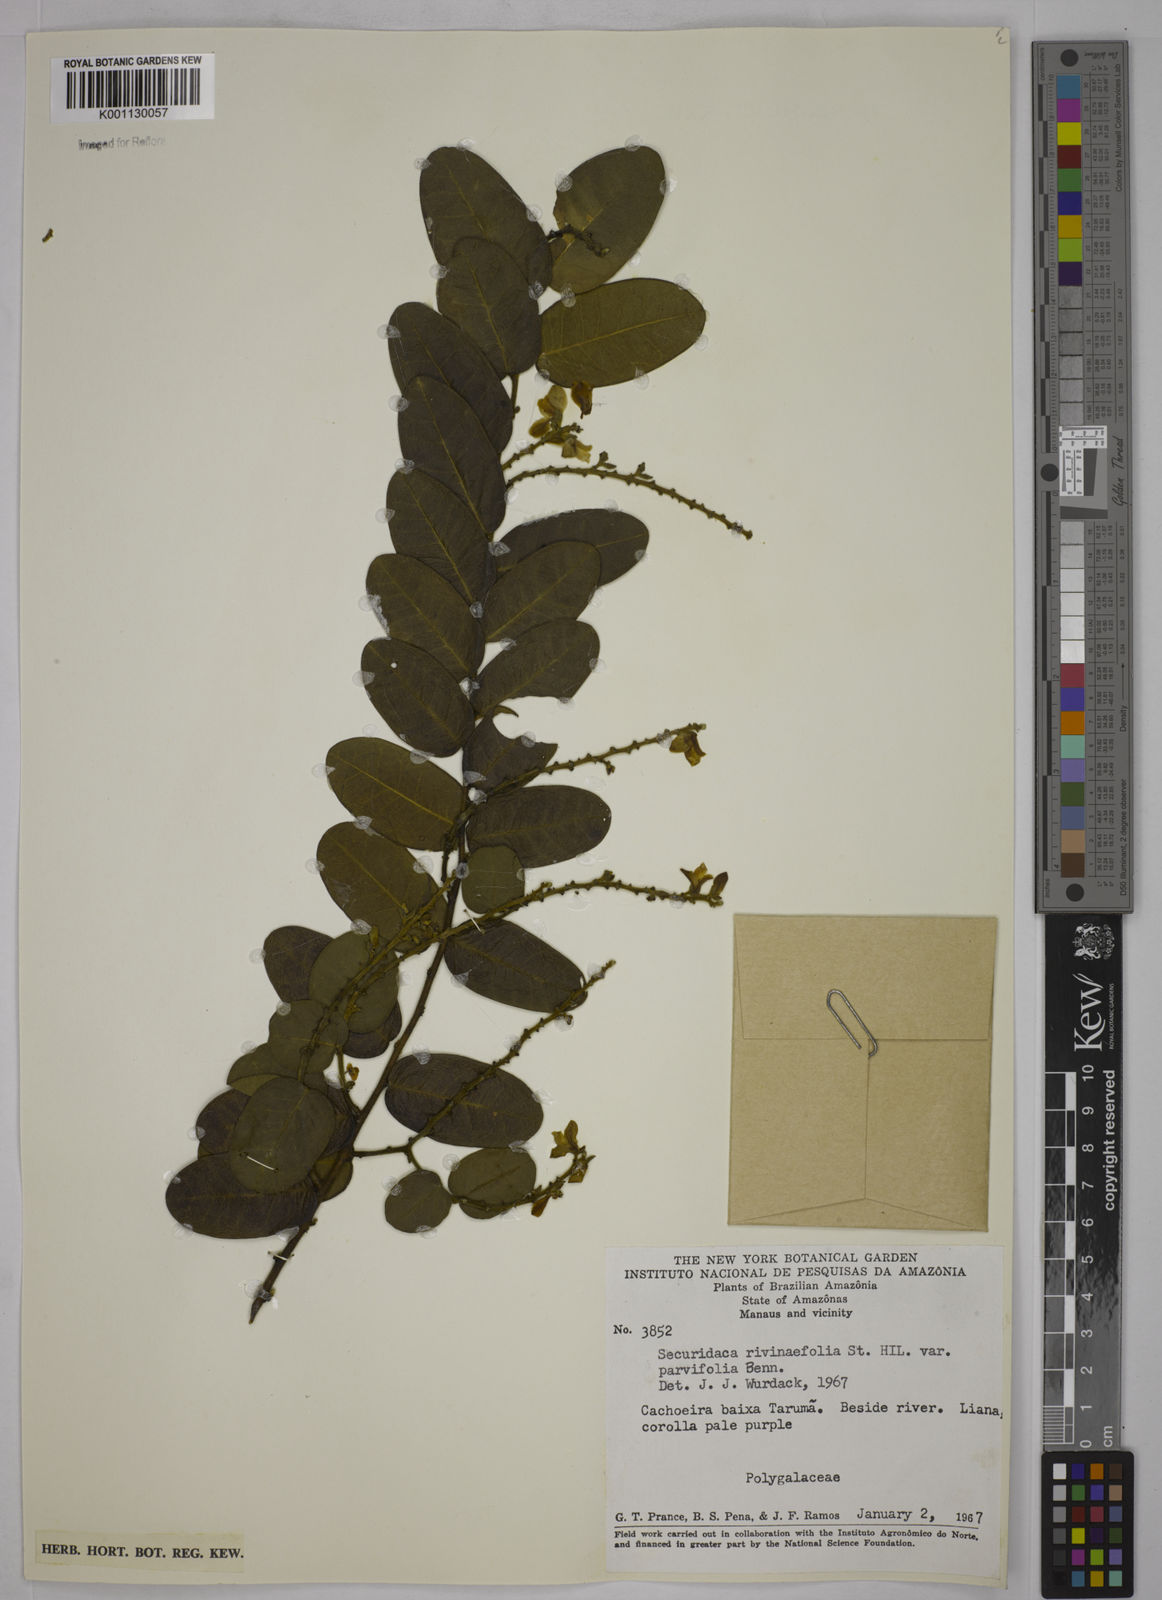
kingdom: Plantae
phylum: Tracheophyta
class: Magnoliopsida
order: Fabales
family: Polygalaceae
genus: Securidaca
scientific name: Securidaca rivinifolia
